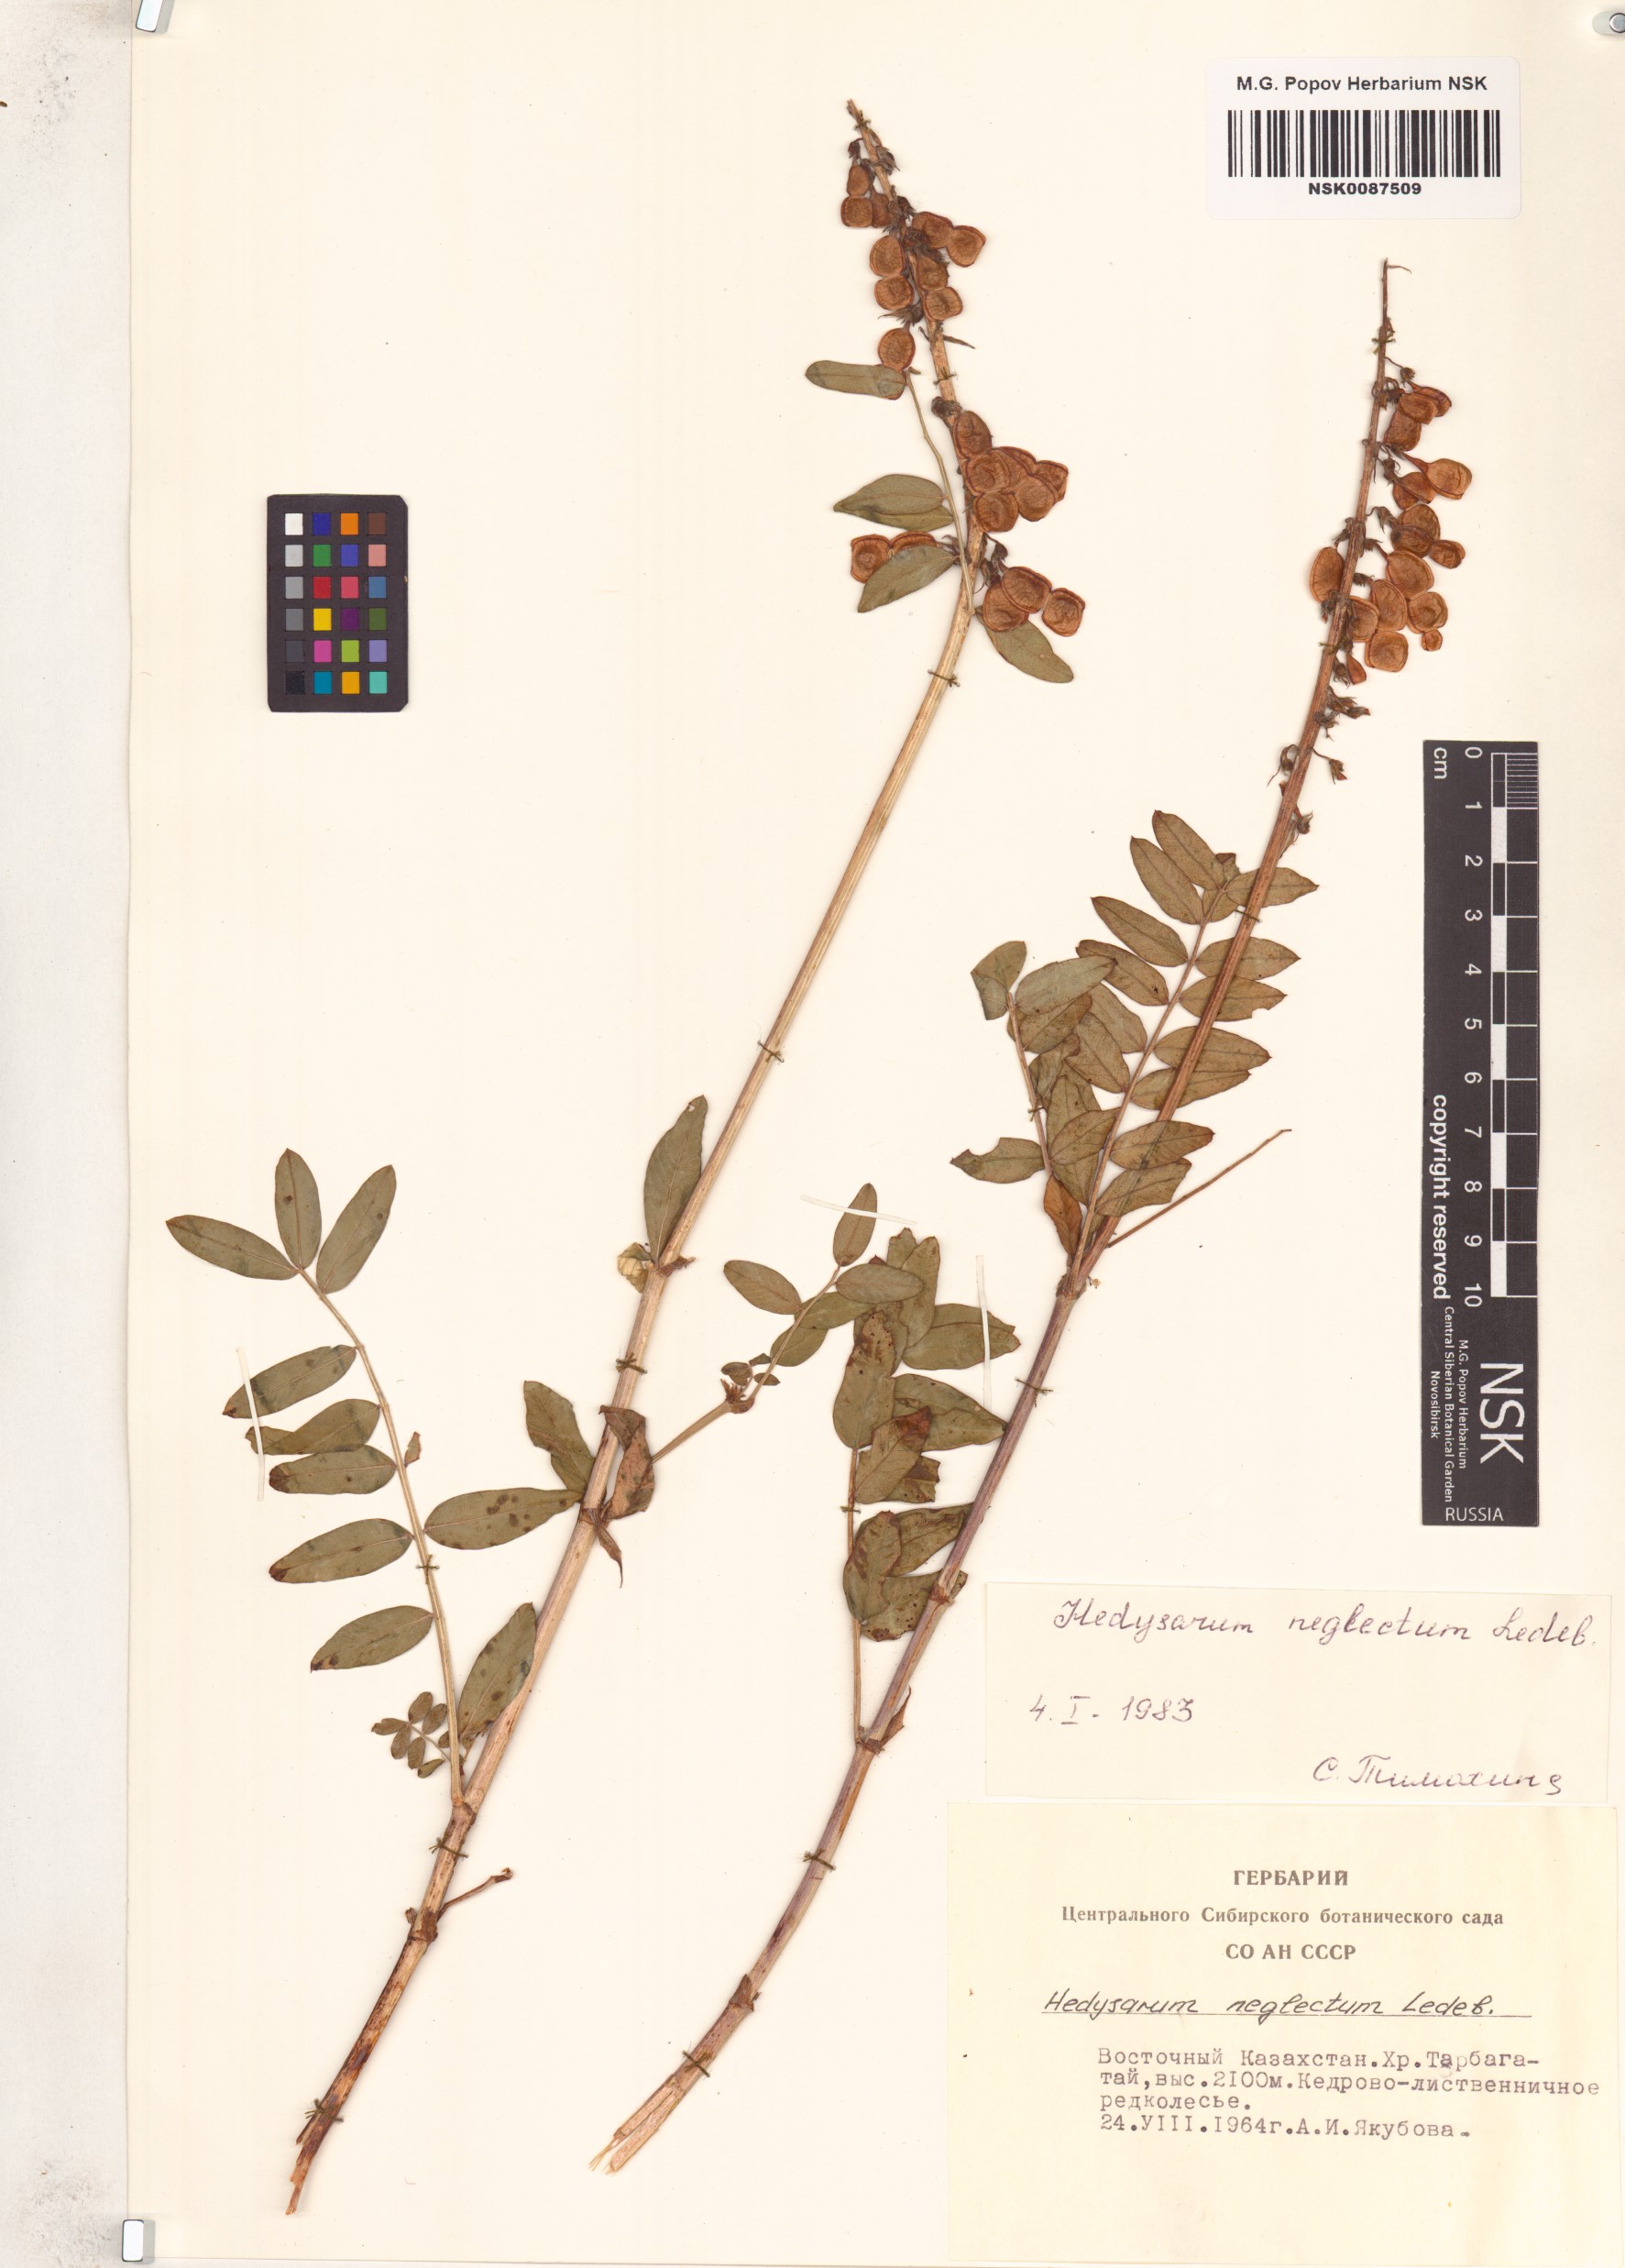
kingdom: Plantae
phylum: Tracheophyta
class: Magnoliopsida
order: Fabales
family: Fabaceae
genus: Hedysarum
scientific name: Hedysarum neglectum
